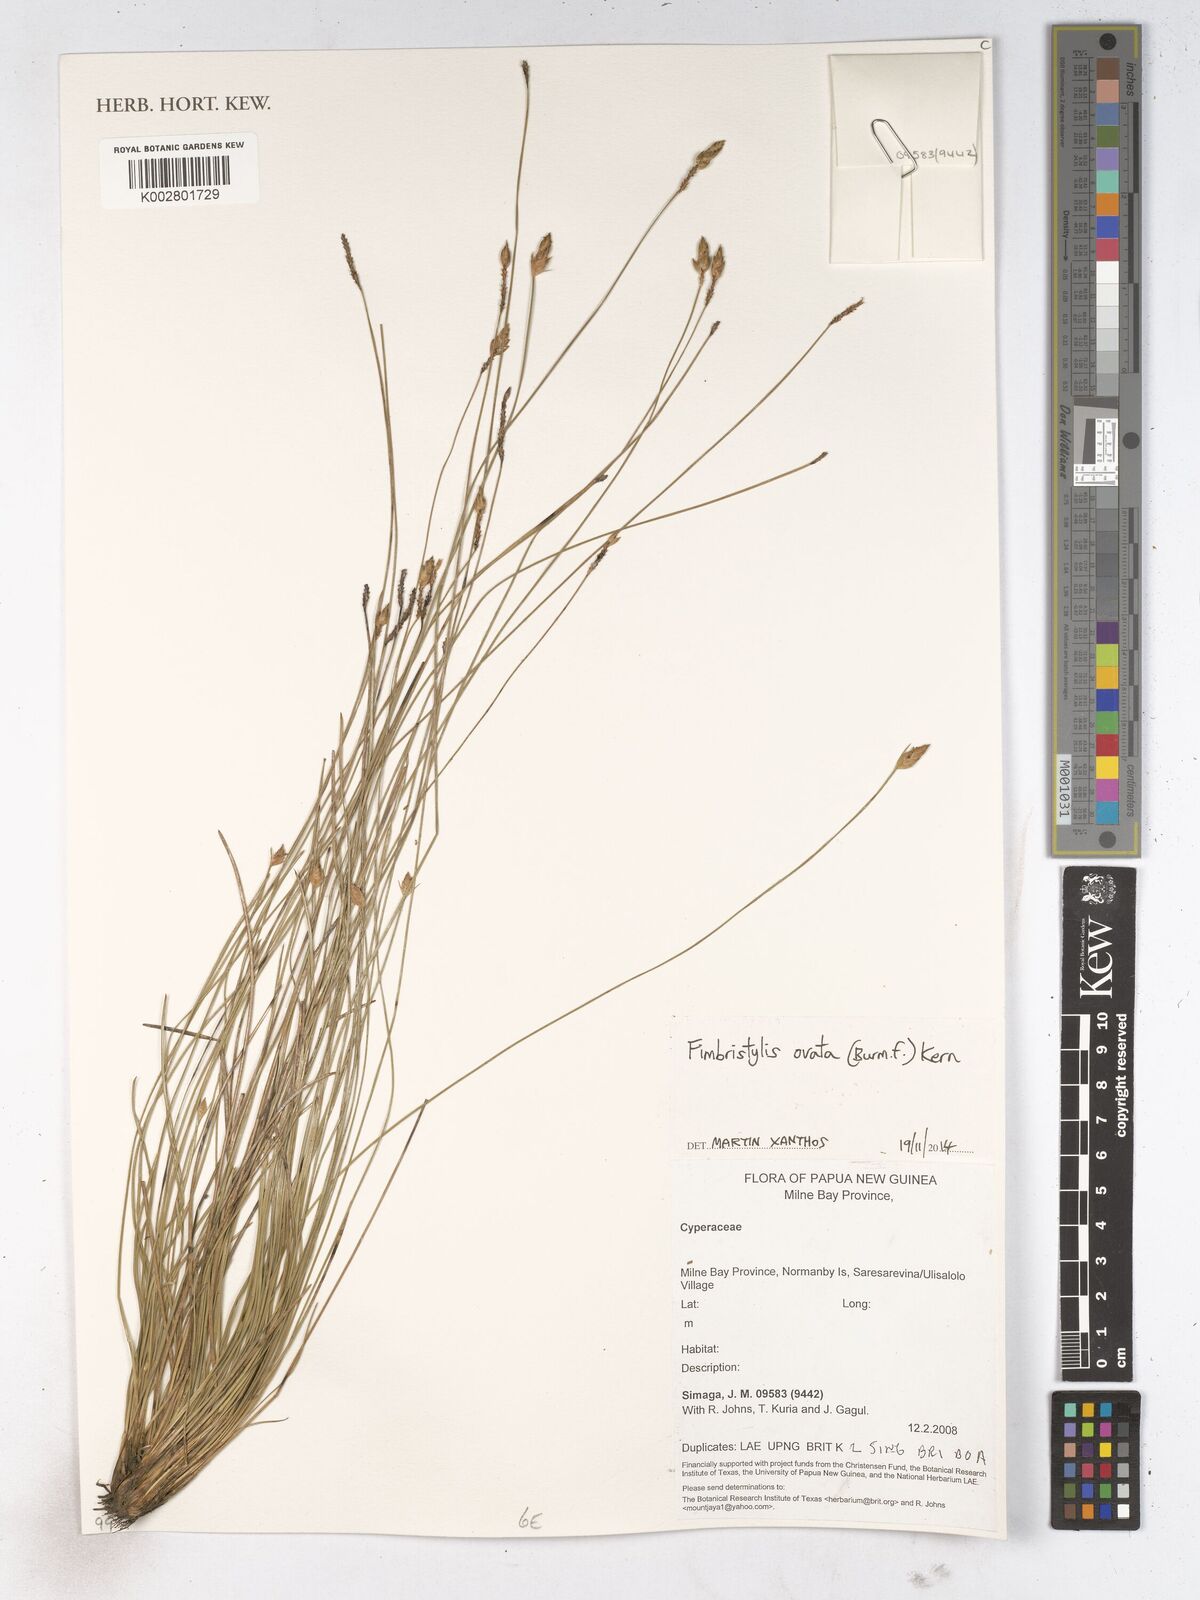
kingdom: Plantae
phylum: Tracheophyta
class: Liliopsida
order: Poales
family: Cyperaceae
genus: Abildgaardia
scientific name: Abildgaardia ovata
